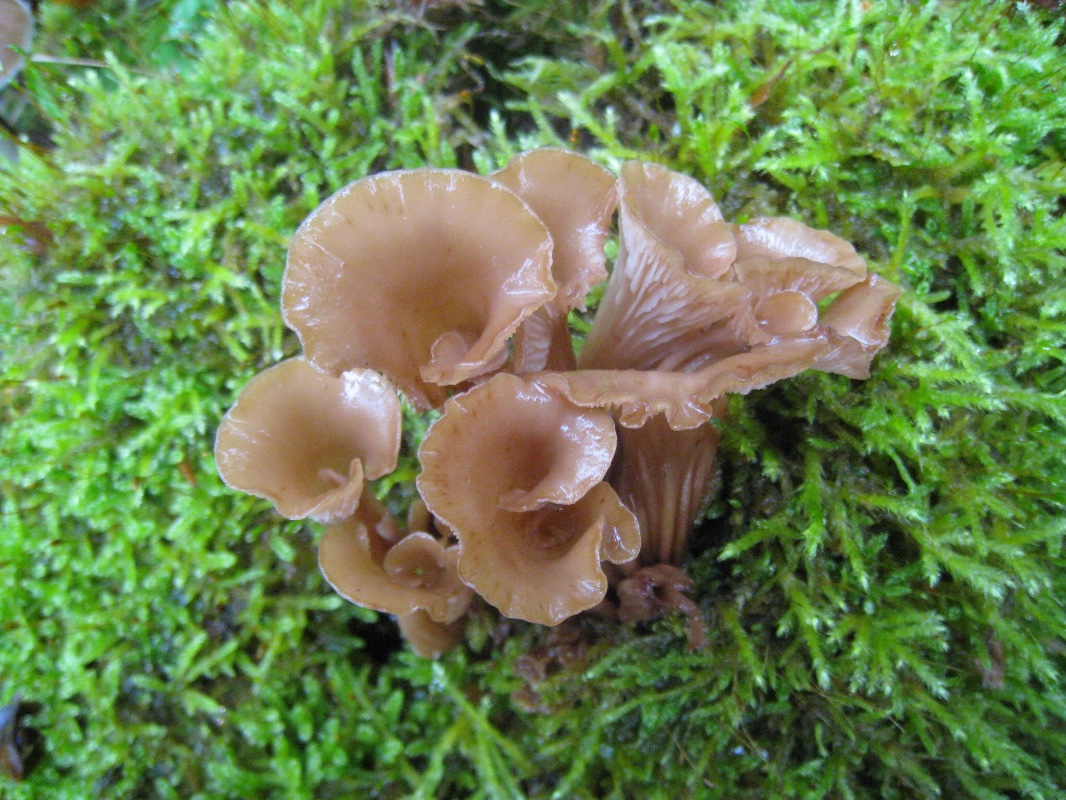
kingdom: Fungi
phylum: Basidiomycota
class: Agaricomycetes
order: Russulales
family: Auriscalpiaceae
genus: Lentinellus
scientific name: Lentinellus cochleatus
